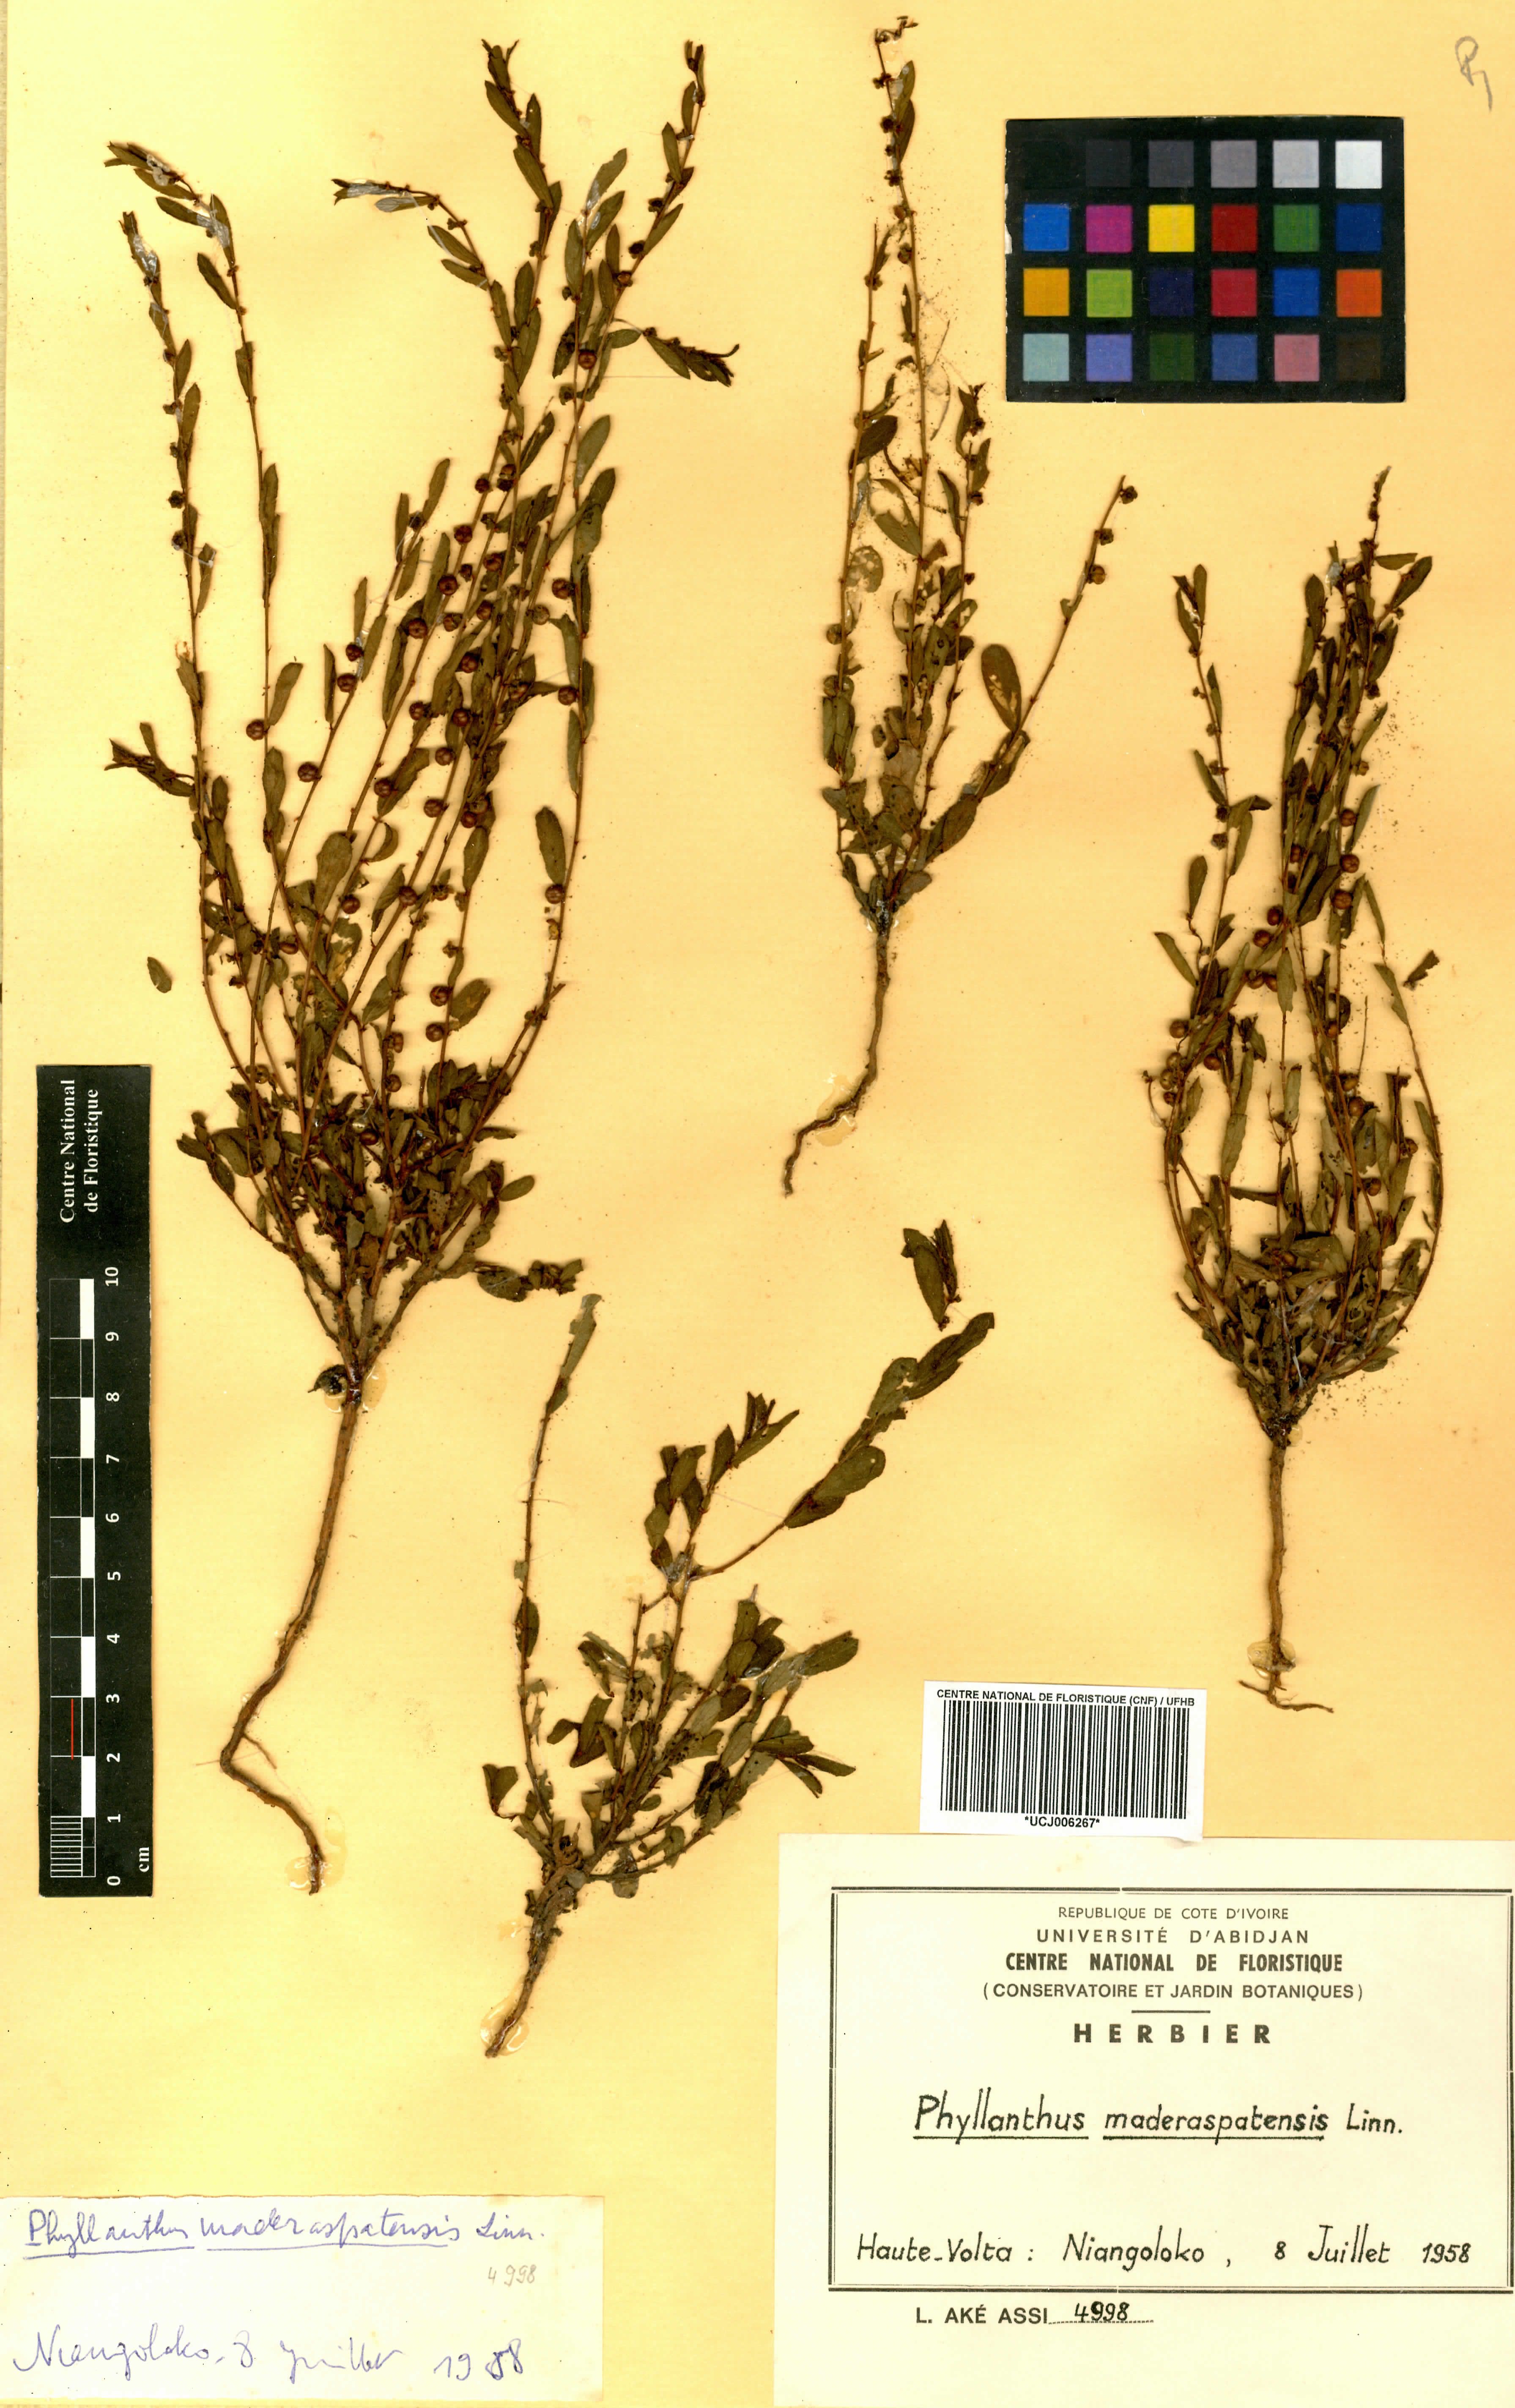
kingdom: Plantae
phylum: Tracheophyta
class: Magnoliopsida
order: Malpighiales
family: Phyllanthaceae
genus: Phyllanthus
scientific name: Phyllanthus maderaspatensis
